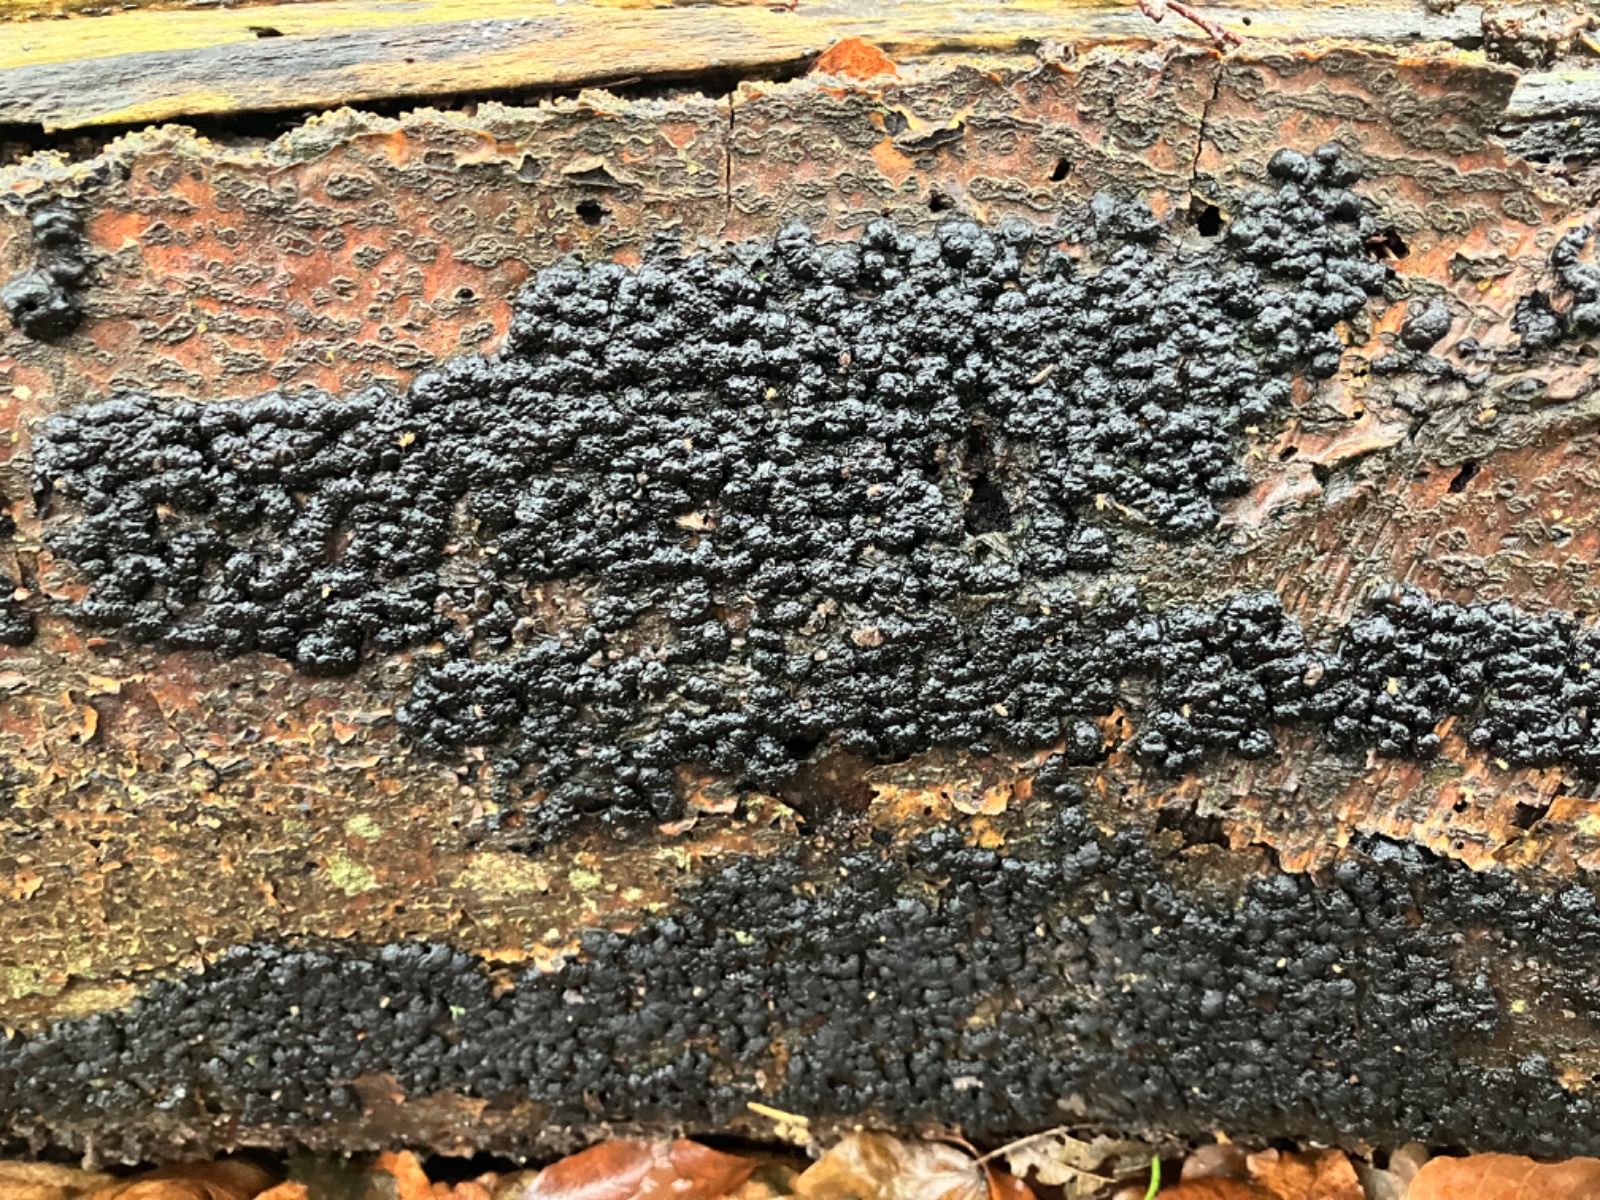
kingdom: Fungi
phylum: Ascomycota
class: Sordariomycetes
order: Xylariales
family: Hypoxylaceae
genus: Jackrogersella
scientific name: Jackrogersella cohaerens
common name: sammenflydende kulbær
